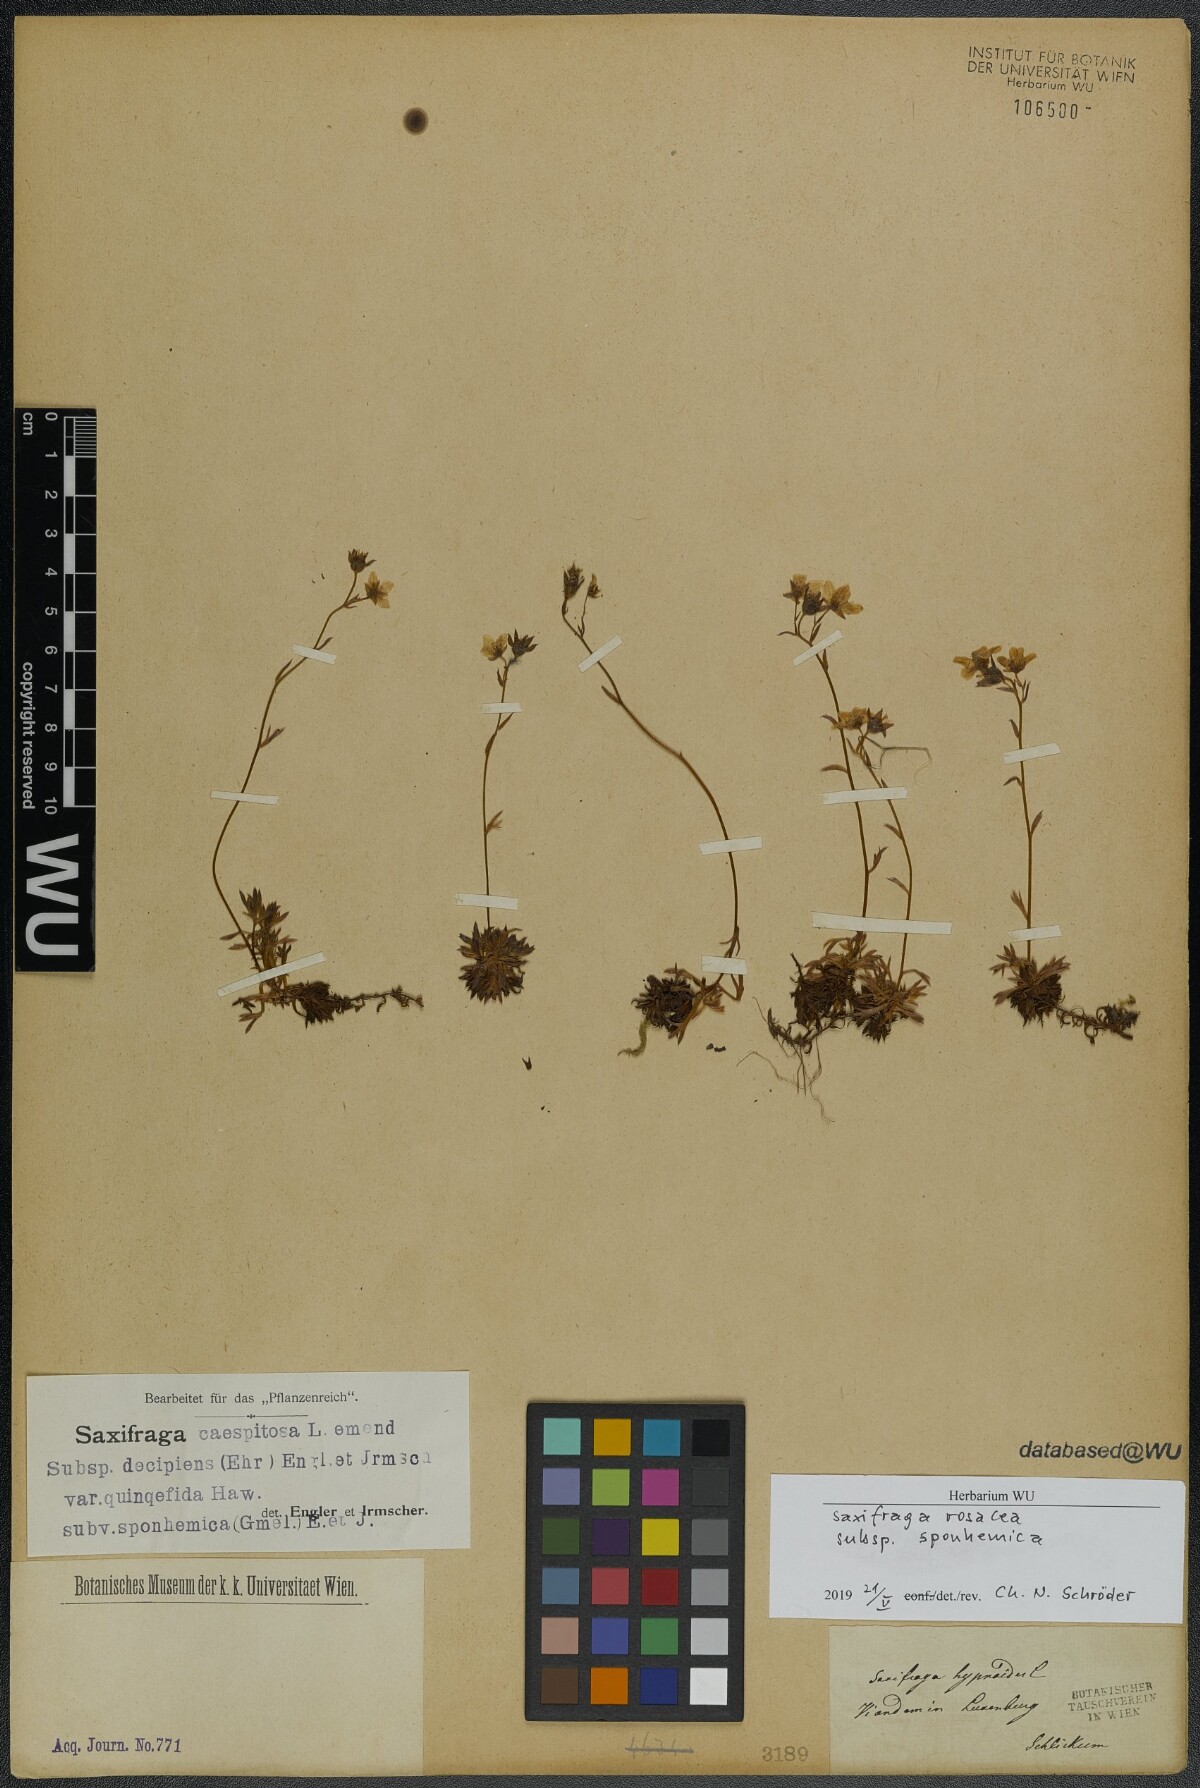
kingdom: Plantae
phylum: Tracheophyta
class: Magnoliopsida
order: Saxifragales
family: Saxifragaceae
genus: Saxifraga
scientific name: Saxifraga rosacea
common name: Irish saxifrage
